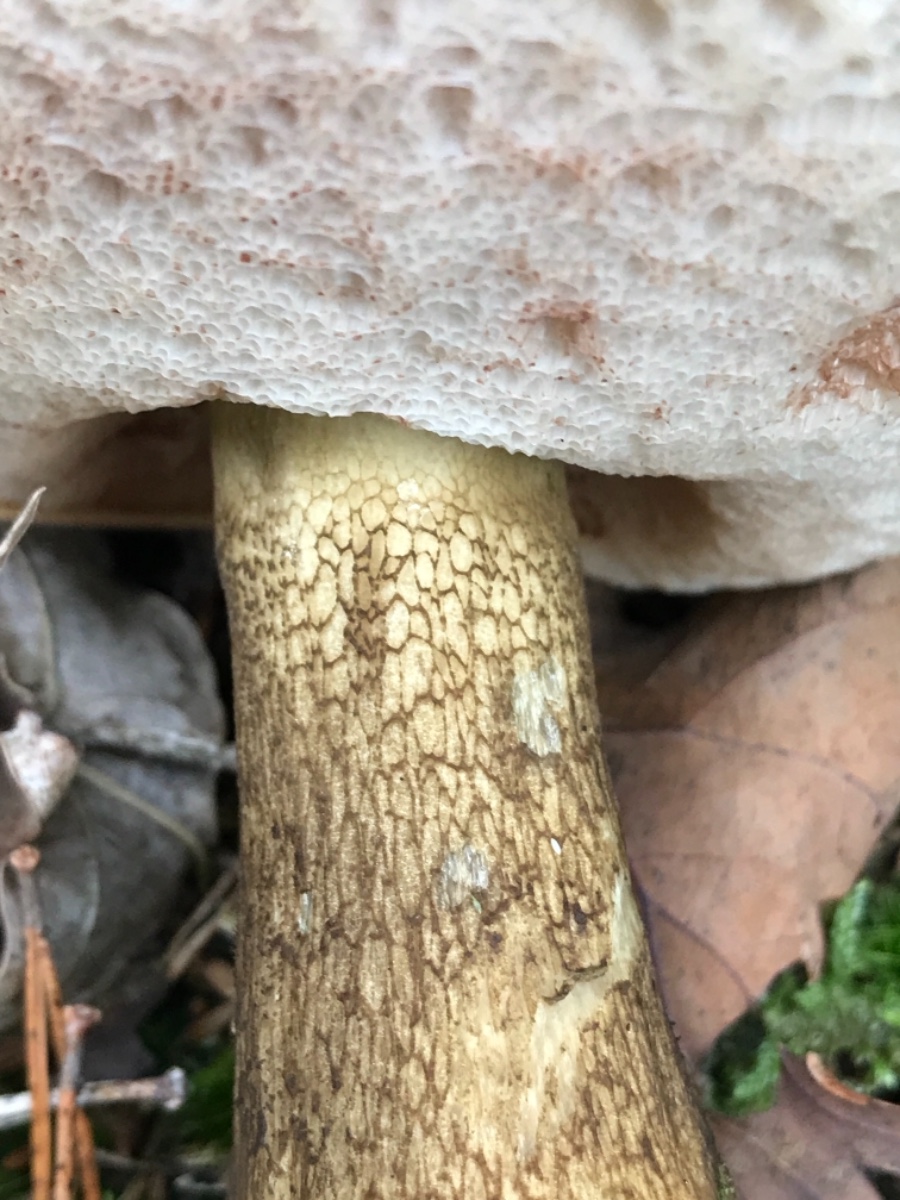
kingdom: Fungi
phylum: Basidiomycota
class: Agaricomycetes
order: Boletales
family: Boletaceae
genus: Tylopilus
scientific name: Tylopilus felleus
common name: galderørhat
